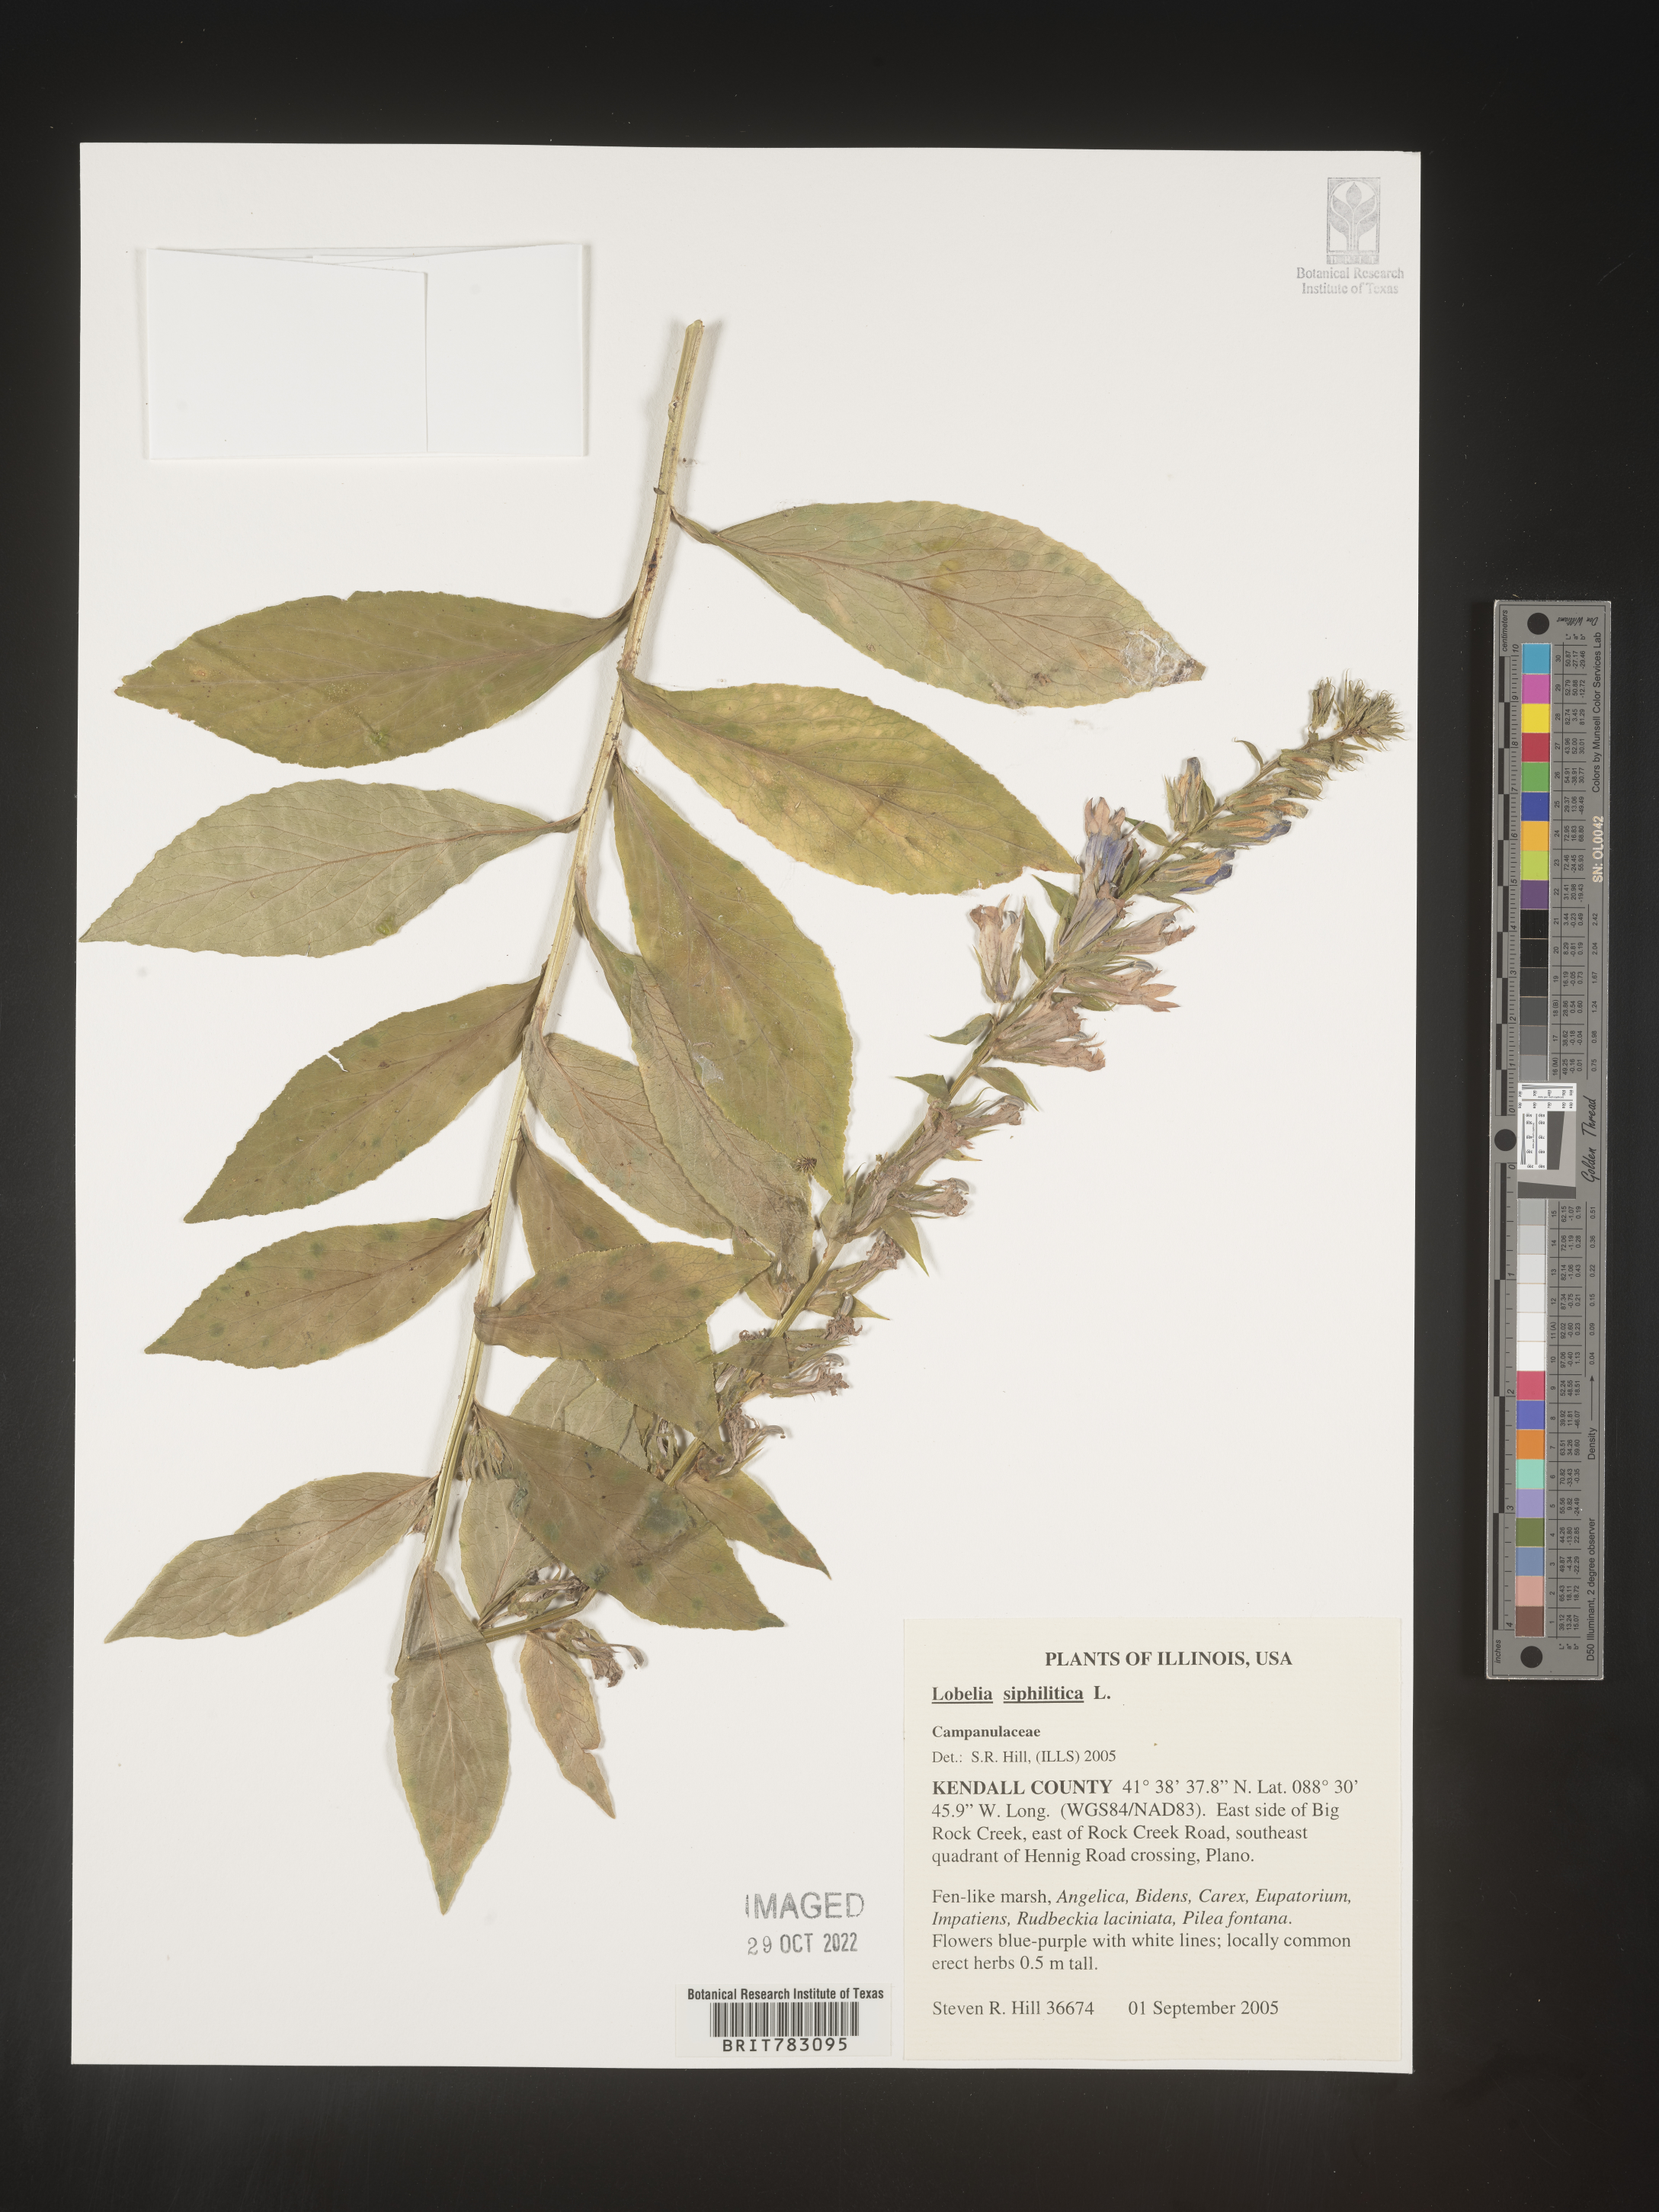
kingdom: Plantae
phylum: Tracheophyta
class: Magnoliopsida
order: Asterales
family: Campanulaceae
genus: Lobelia
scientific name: Lobelia siphilitica
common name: Great lobelia
